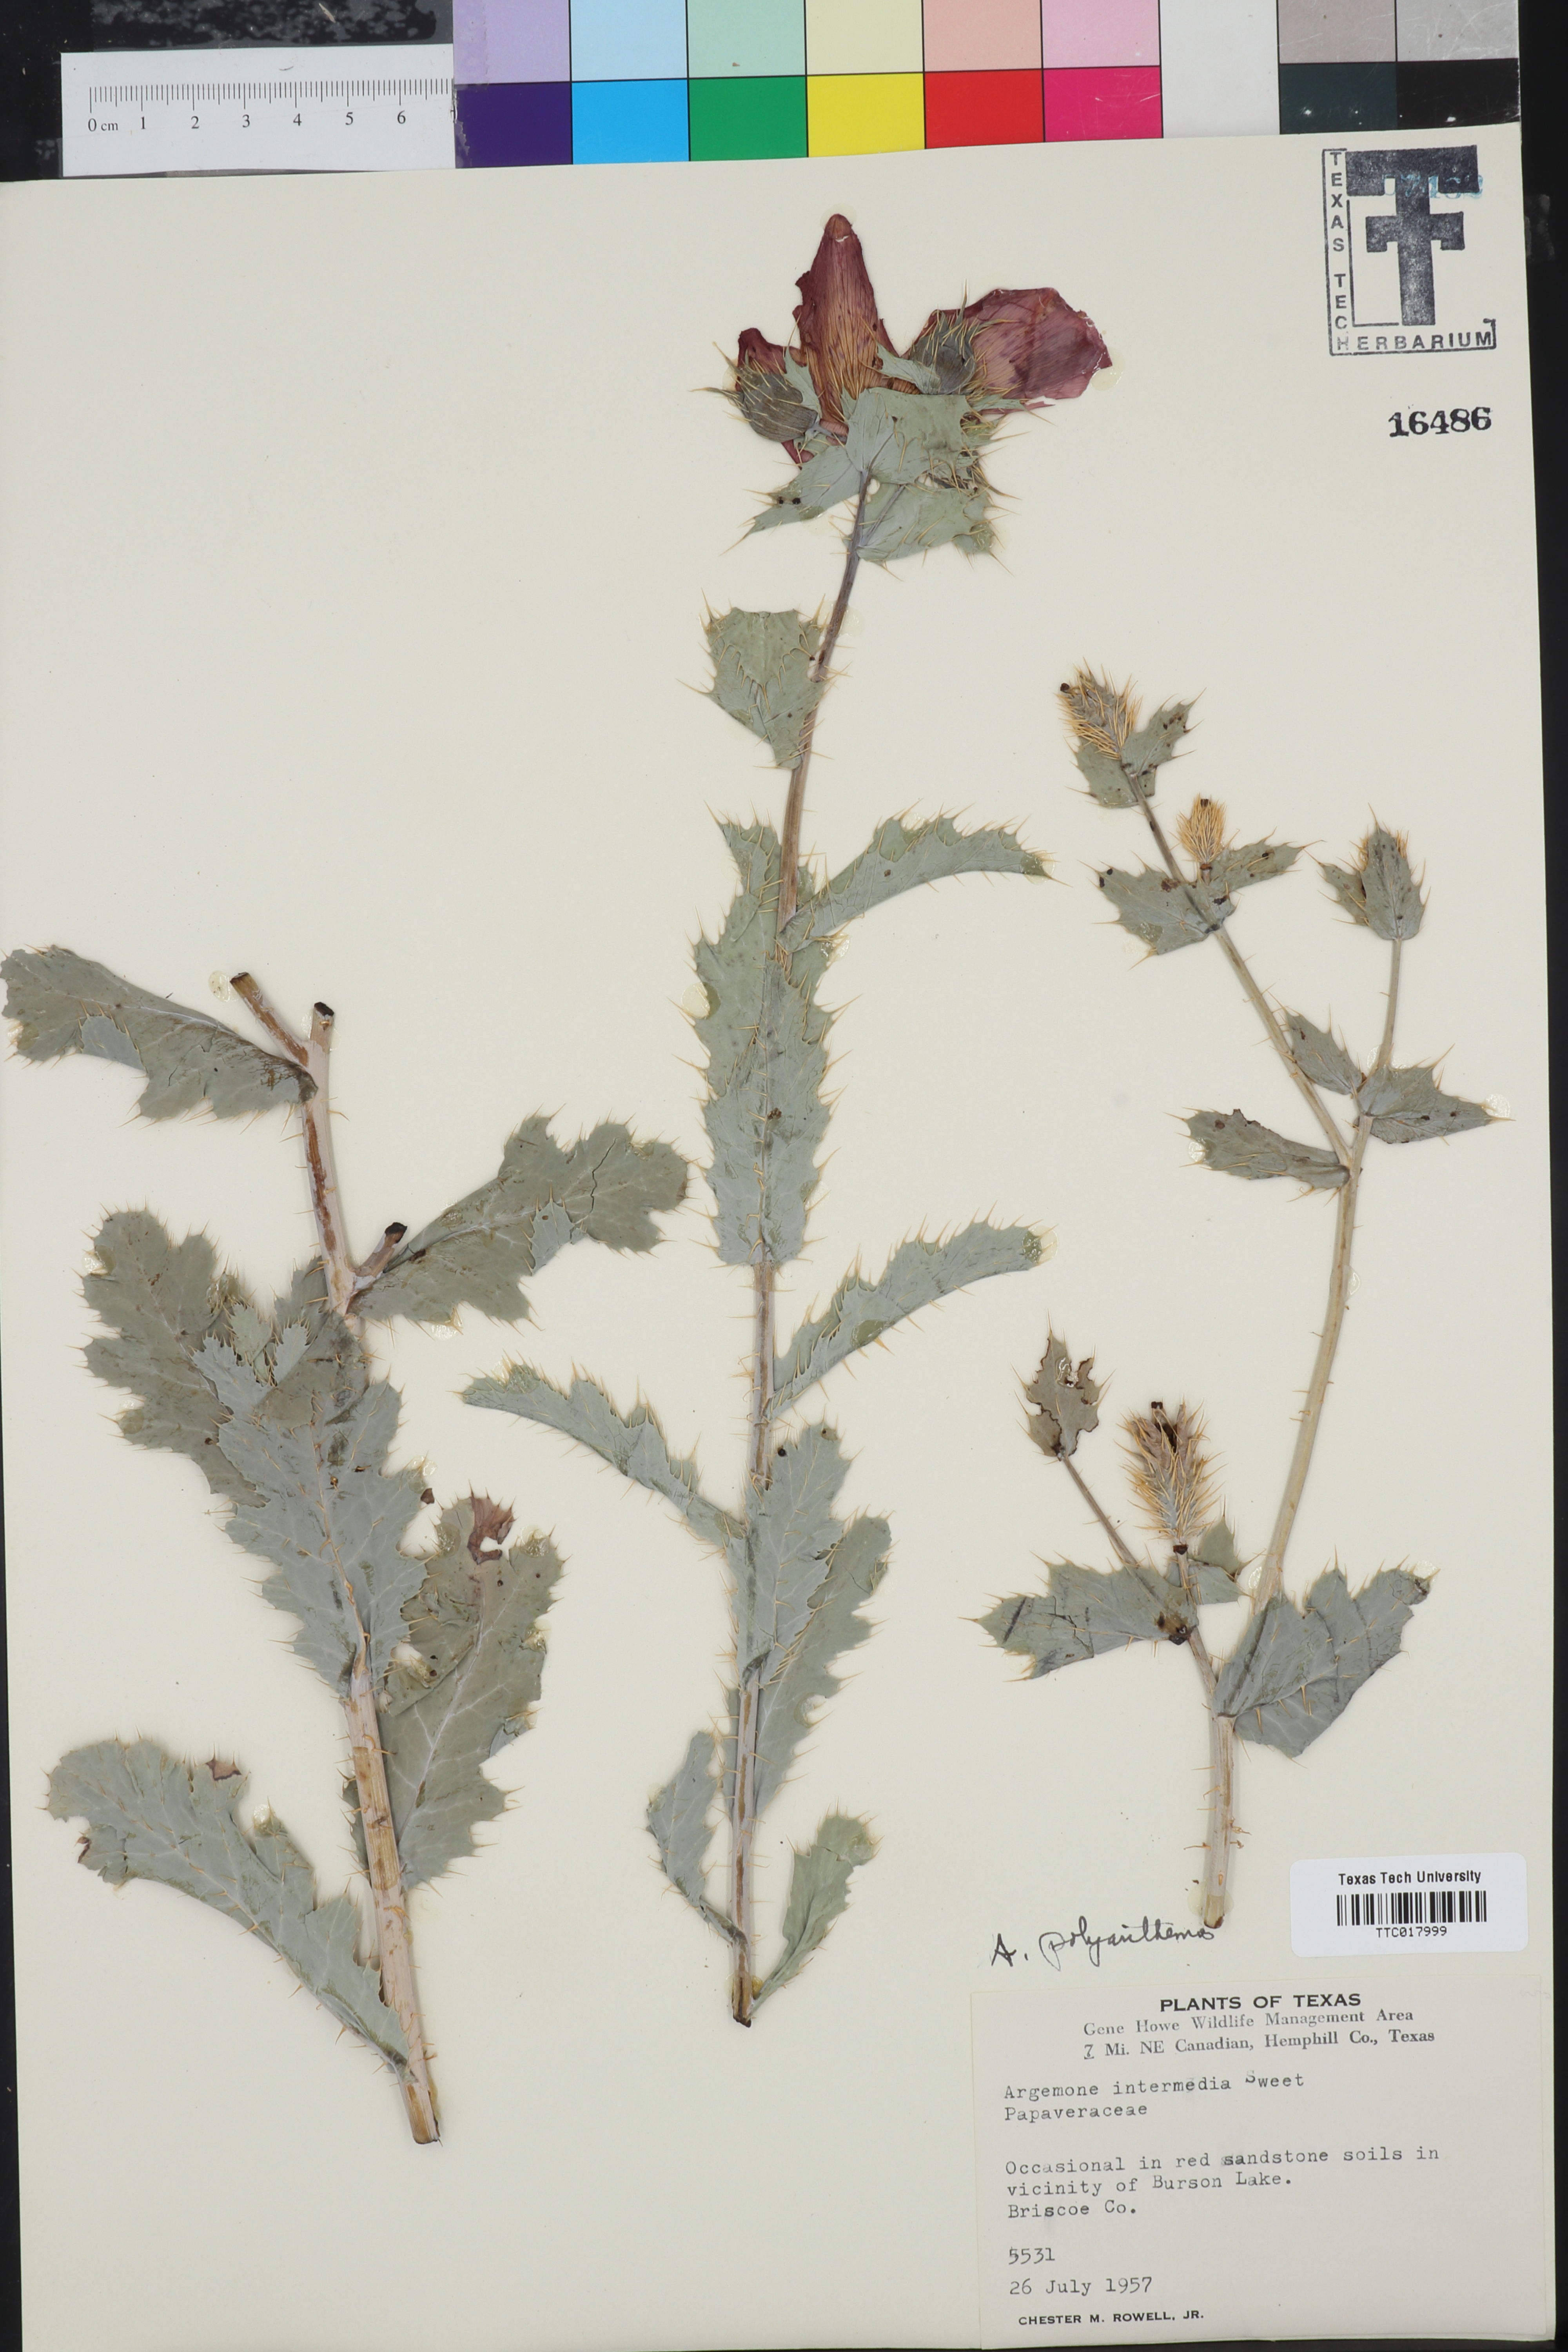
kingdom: Plantae
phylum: Tracheophyta
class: Magnoliopsida
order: Ranunculales
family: Papaveraceae
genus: Argemone
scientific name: Argemone intermedia
